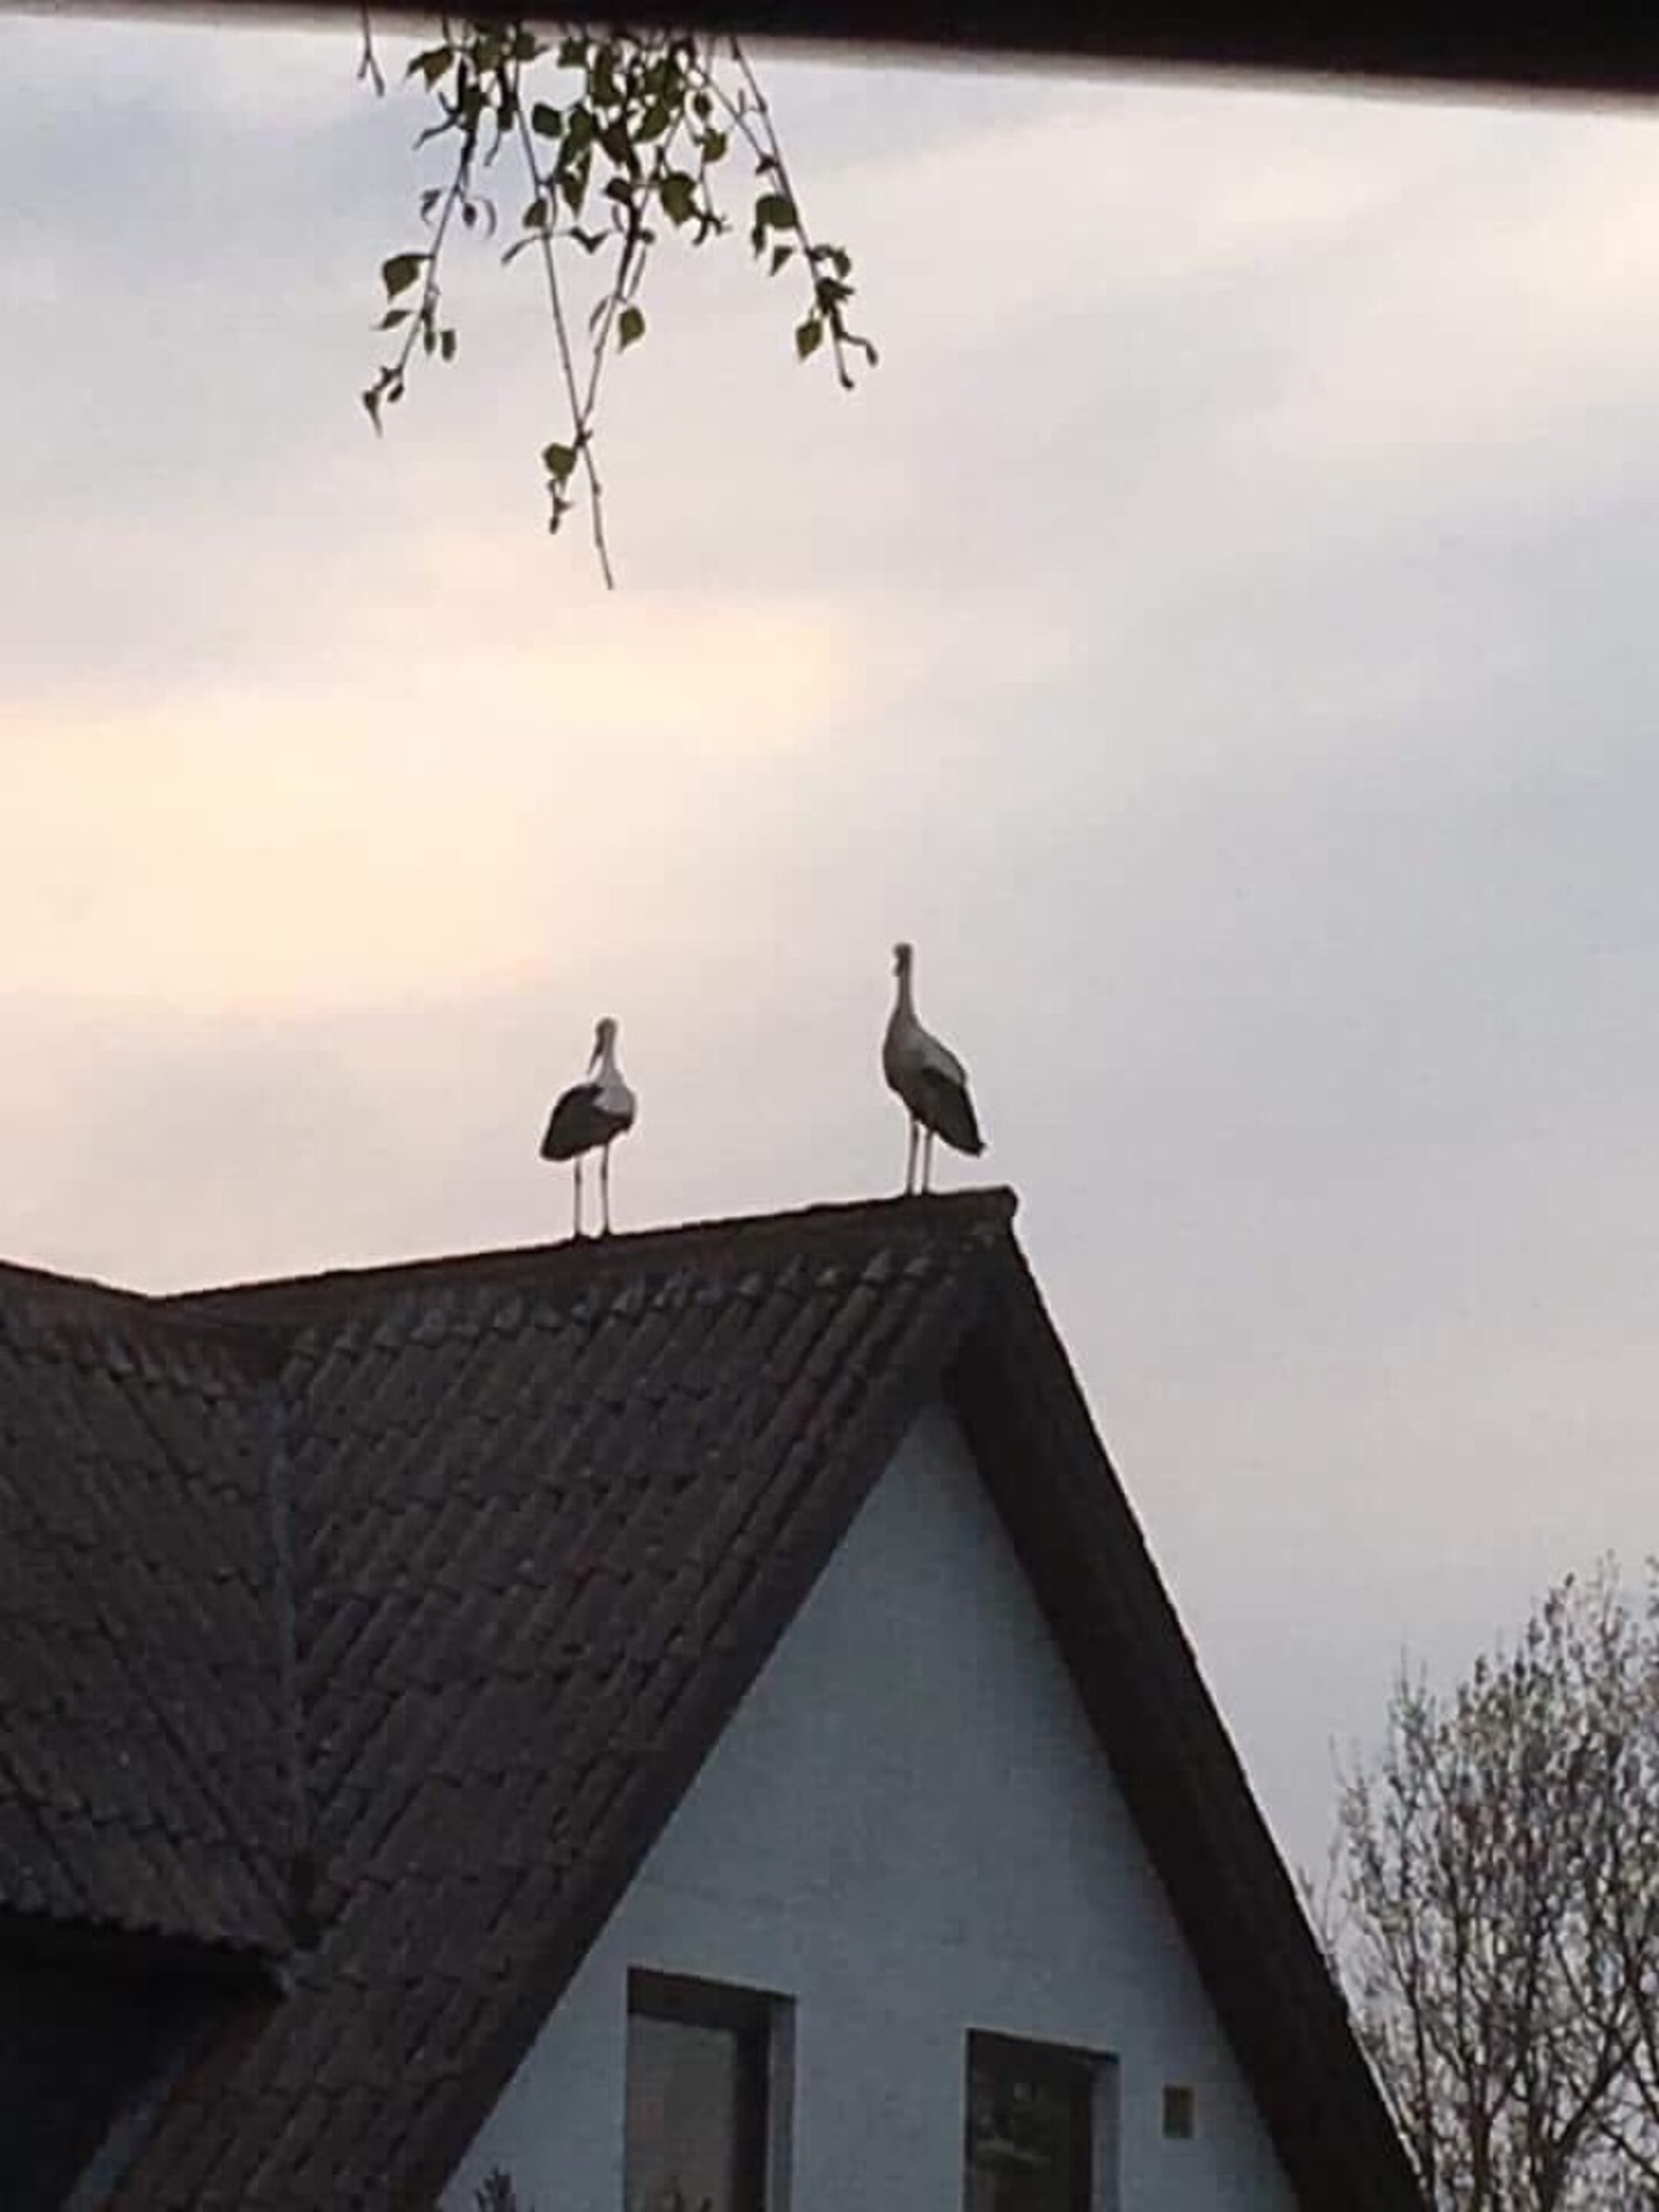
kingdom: Animalia
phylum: Chordata
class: Aves
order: Ciconiiformes
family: Ciconiidae
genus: Ciconia
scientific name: Ciconia ciconia
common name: Hvid stork
